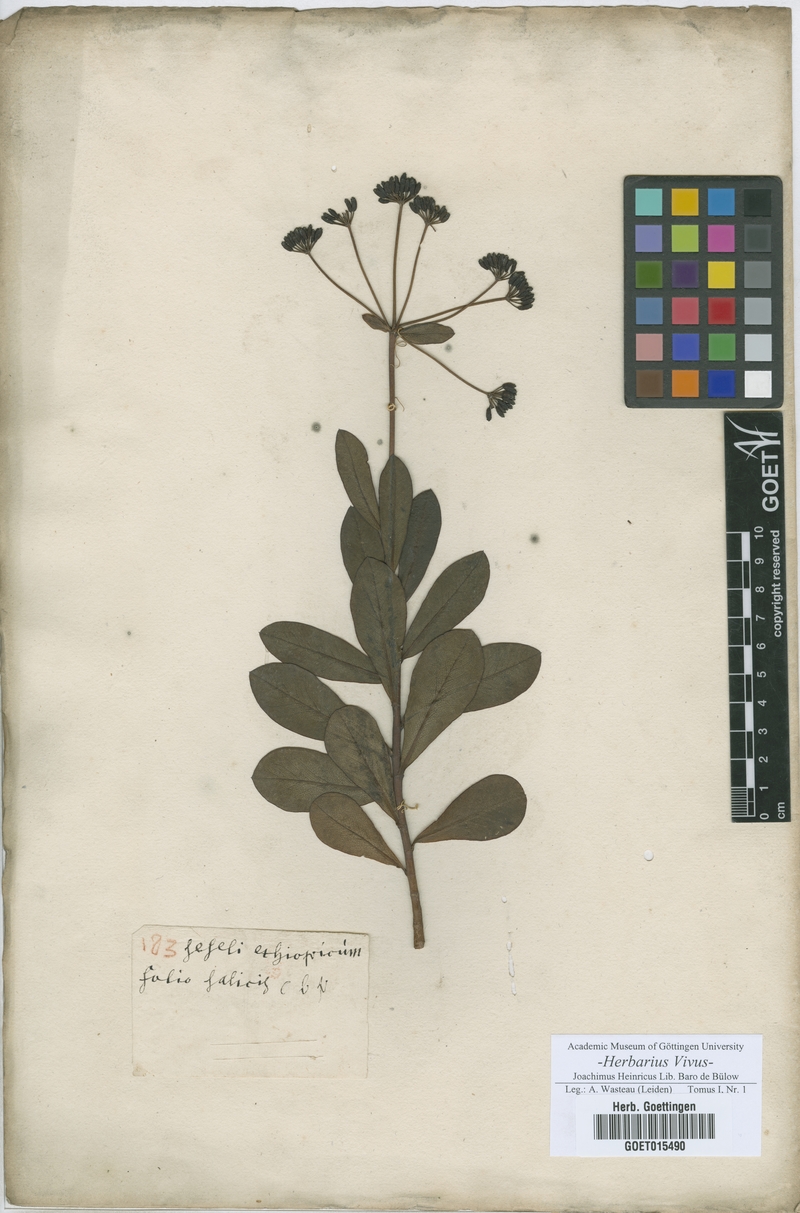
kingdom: Plantae
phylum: Tracheophyta
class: Magnoliopsida
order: Apiales
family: Apiaceae
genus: Seseli
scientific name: Seseli
